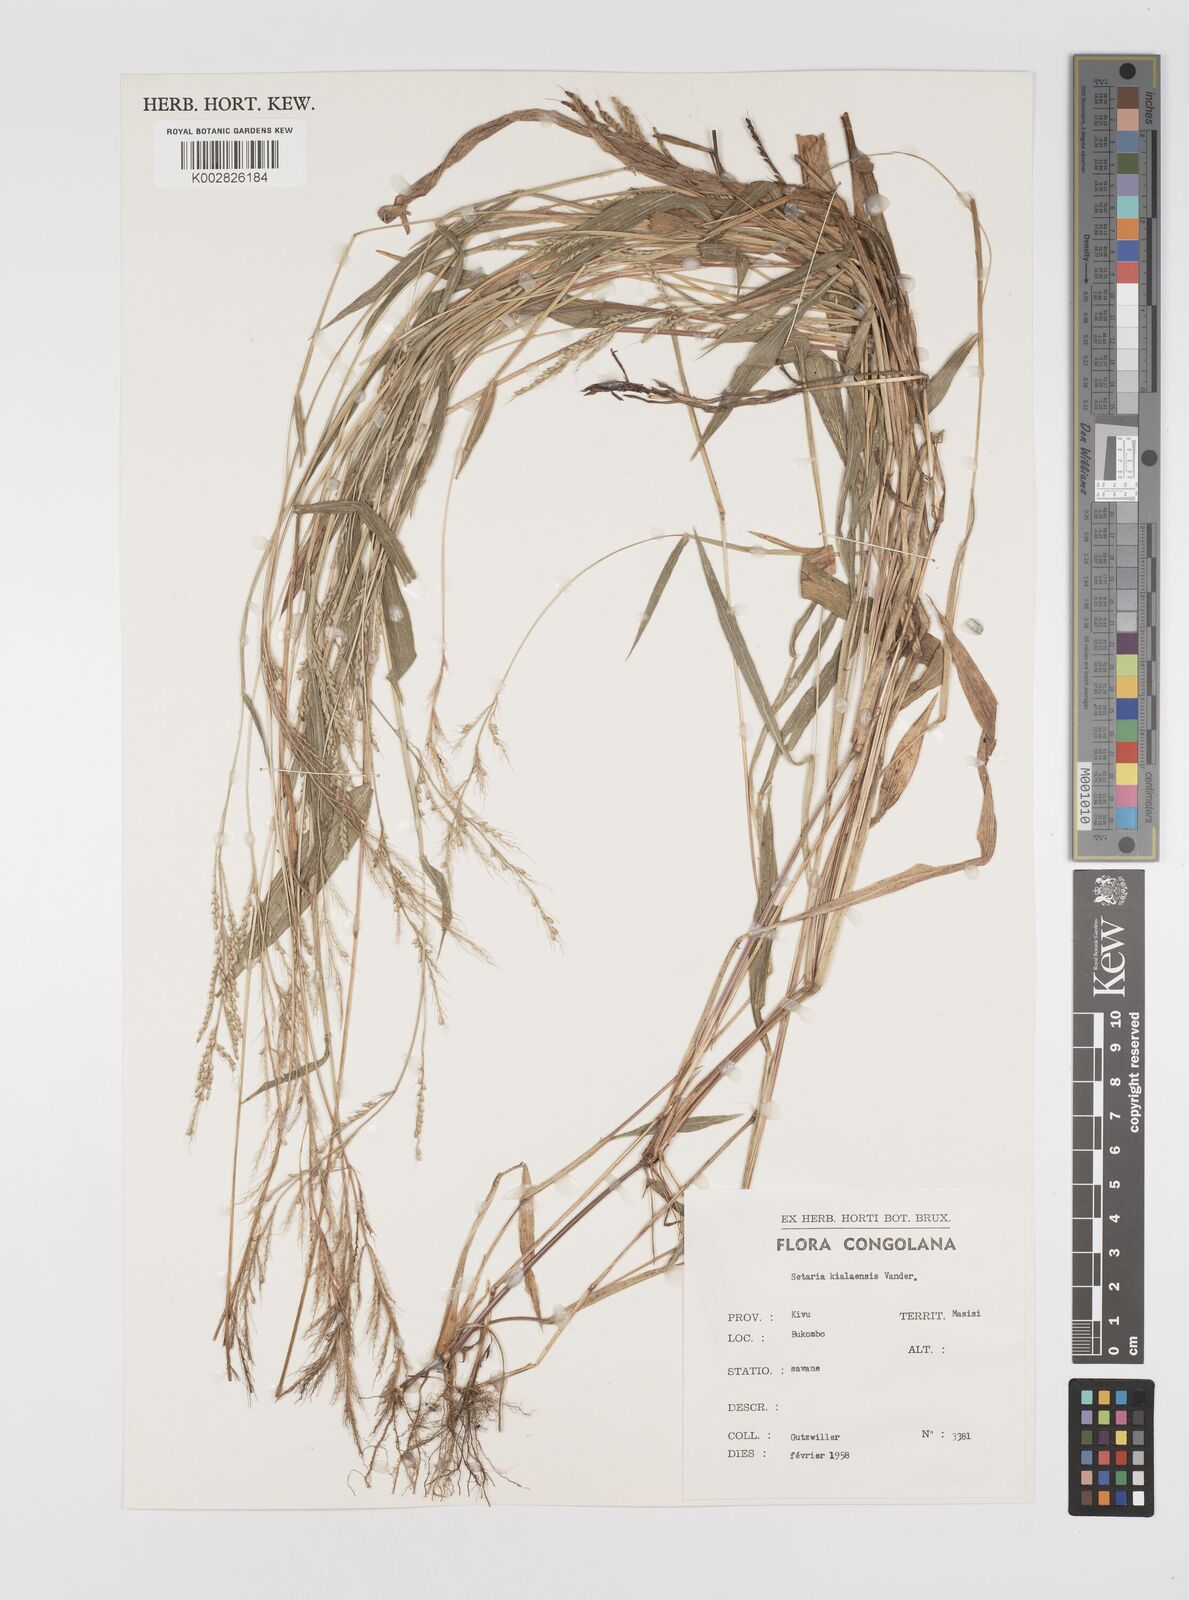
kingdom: Plantae
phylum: Tracheophyta
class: Liliopsida
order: Poales
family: Poaceae
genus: Setaria
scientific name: Setaria homonyma
